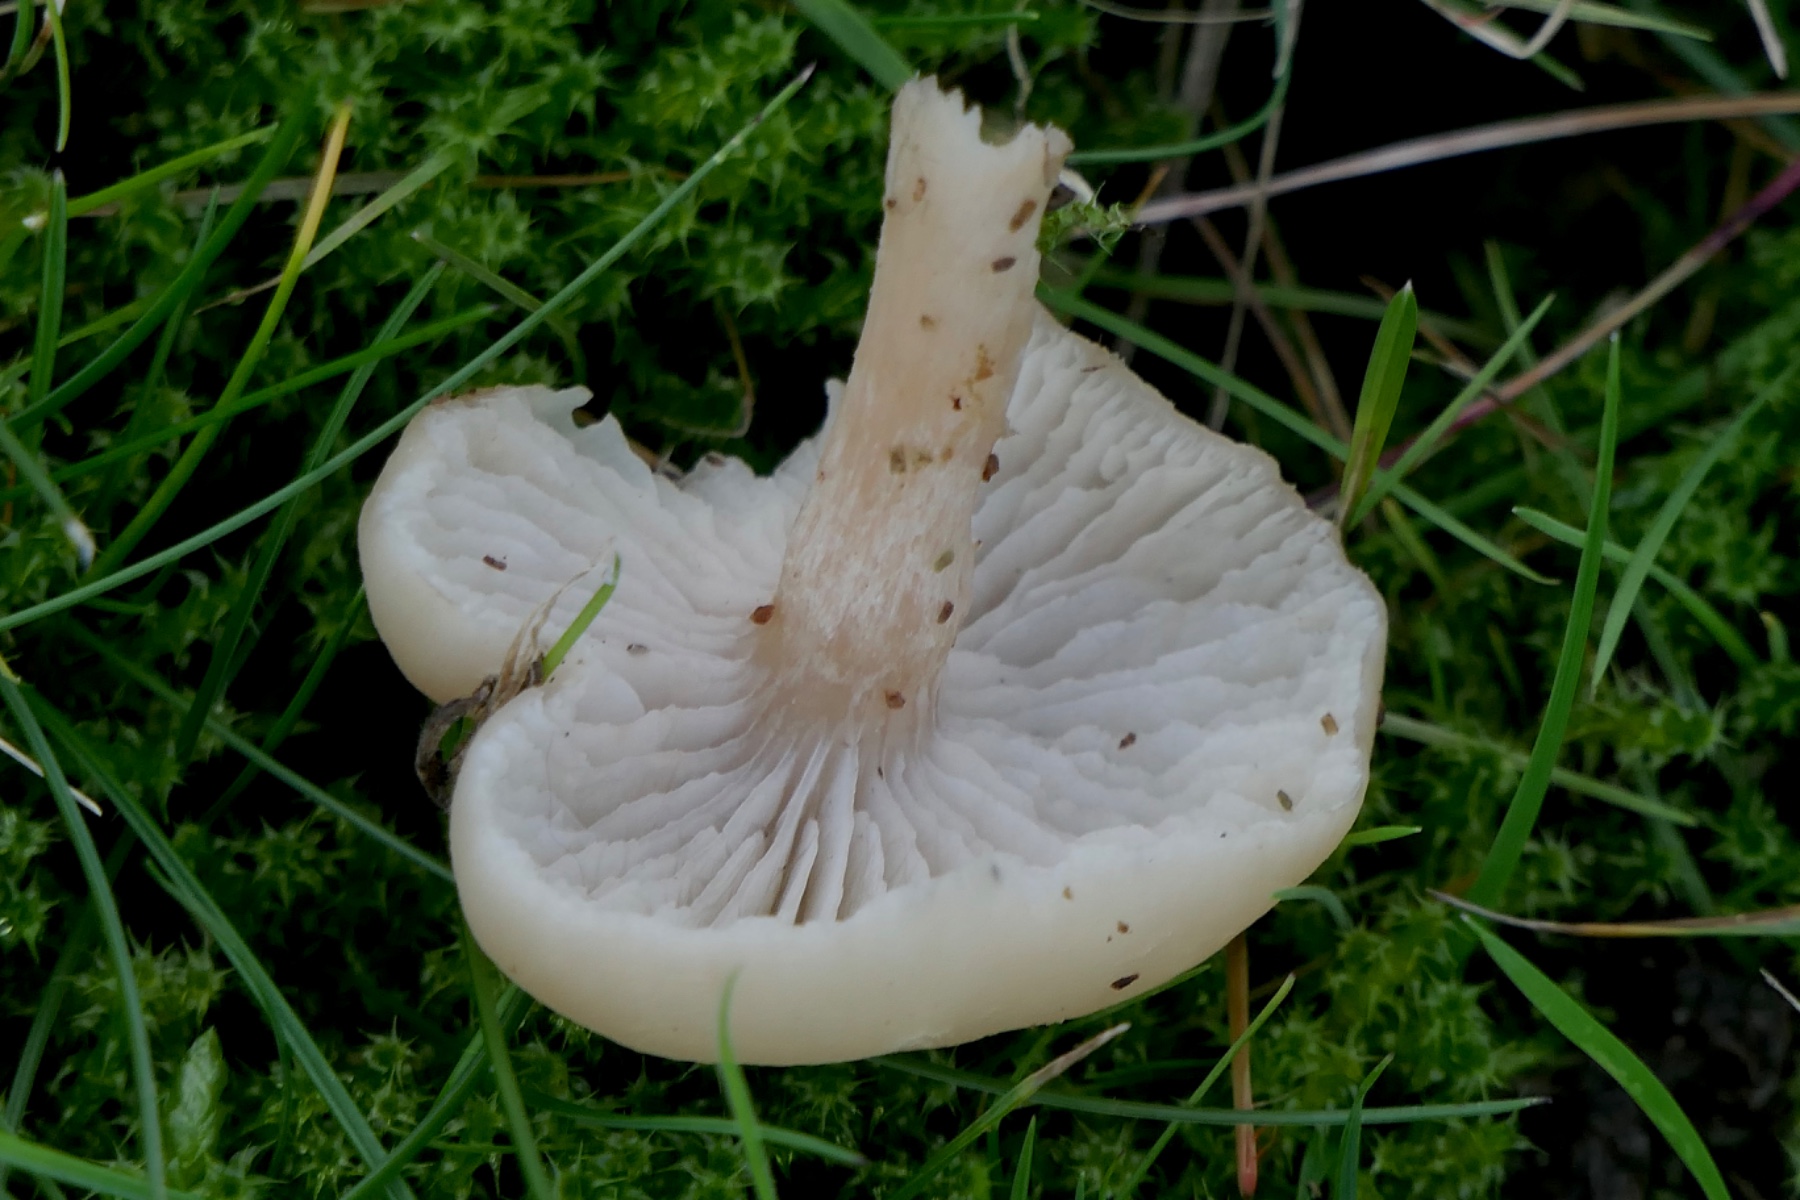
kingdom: Fungi
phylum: Basidiomycota
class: Agaricomycetes
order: Agaricales
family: Hygrophoraceae
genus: Cuphophyllus
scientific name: Cuphophyllus russocoriaceus
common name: ruslæder-vokshat
